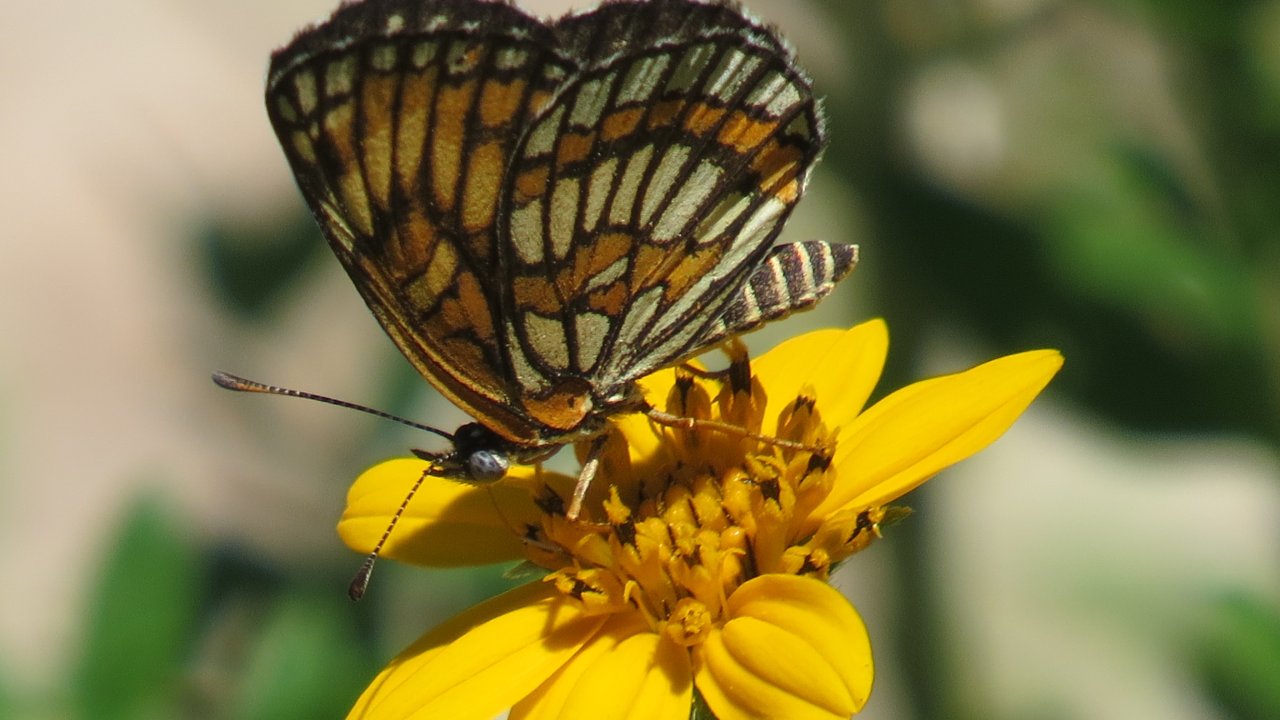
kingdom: Animalia
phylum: Arthropoda
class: Insecta
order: Lepidoptera
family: Nymphalidae
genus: Thessalia
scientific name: Thessalia theona
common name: Theona Checkerspot
